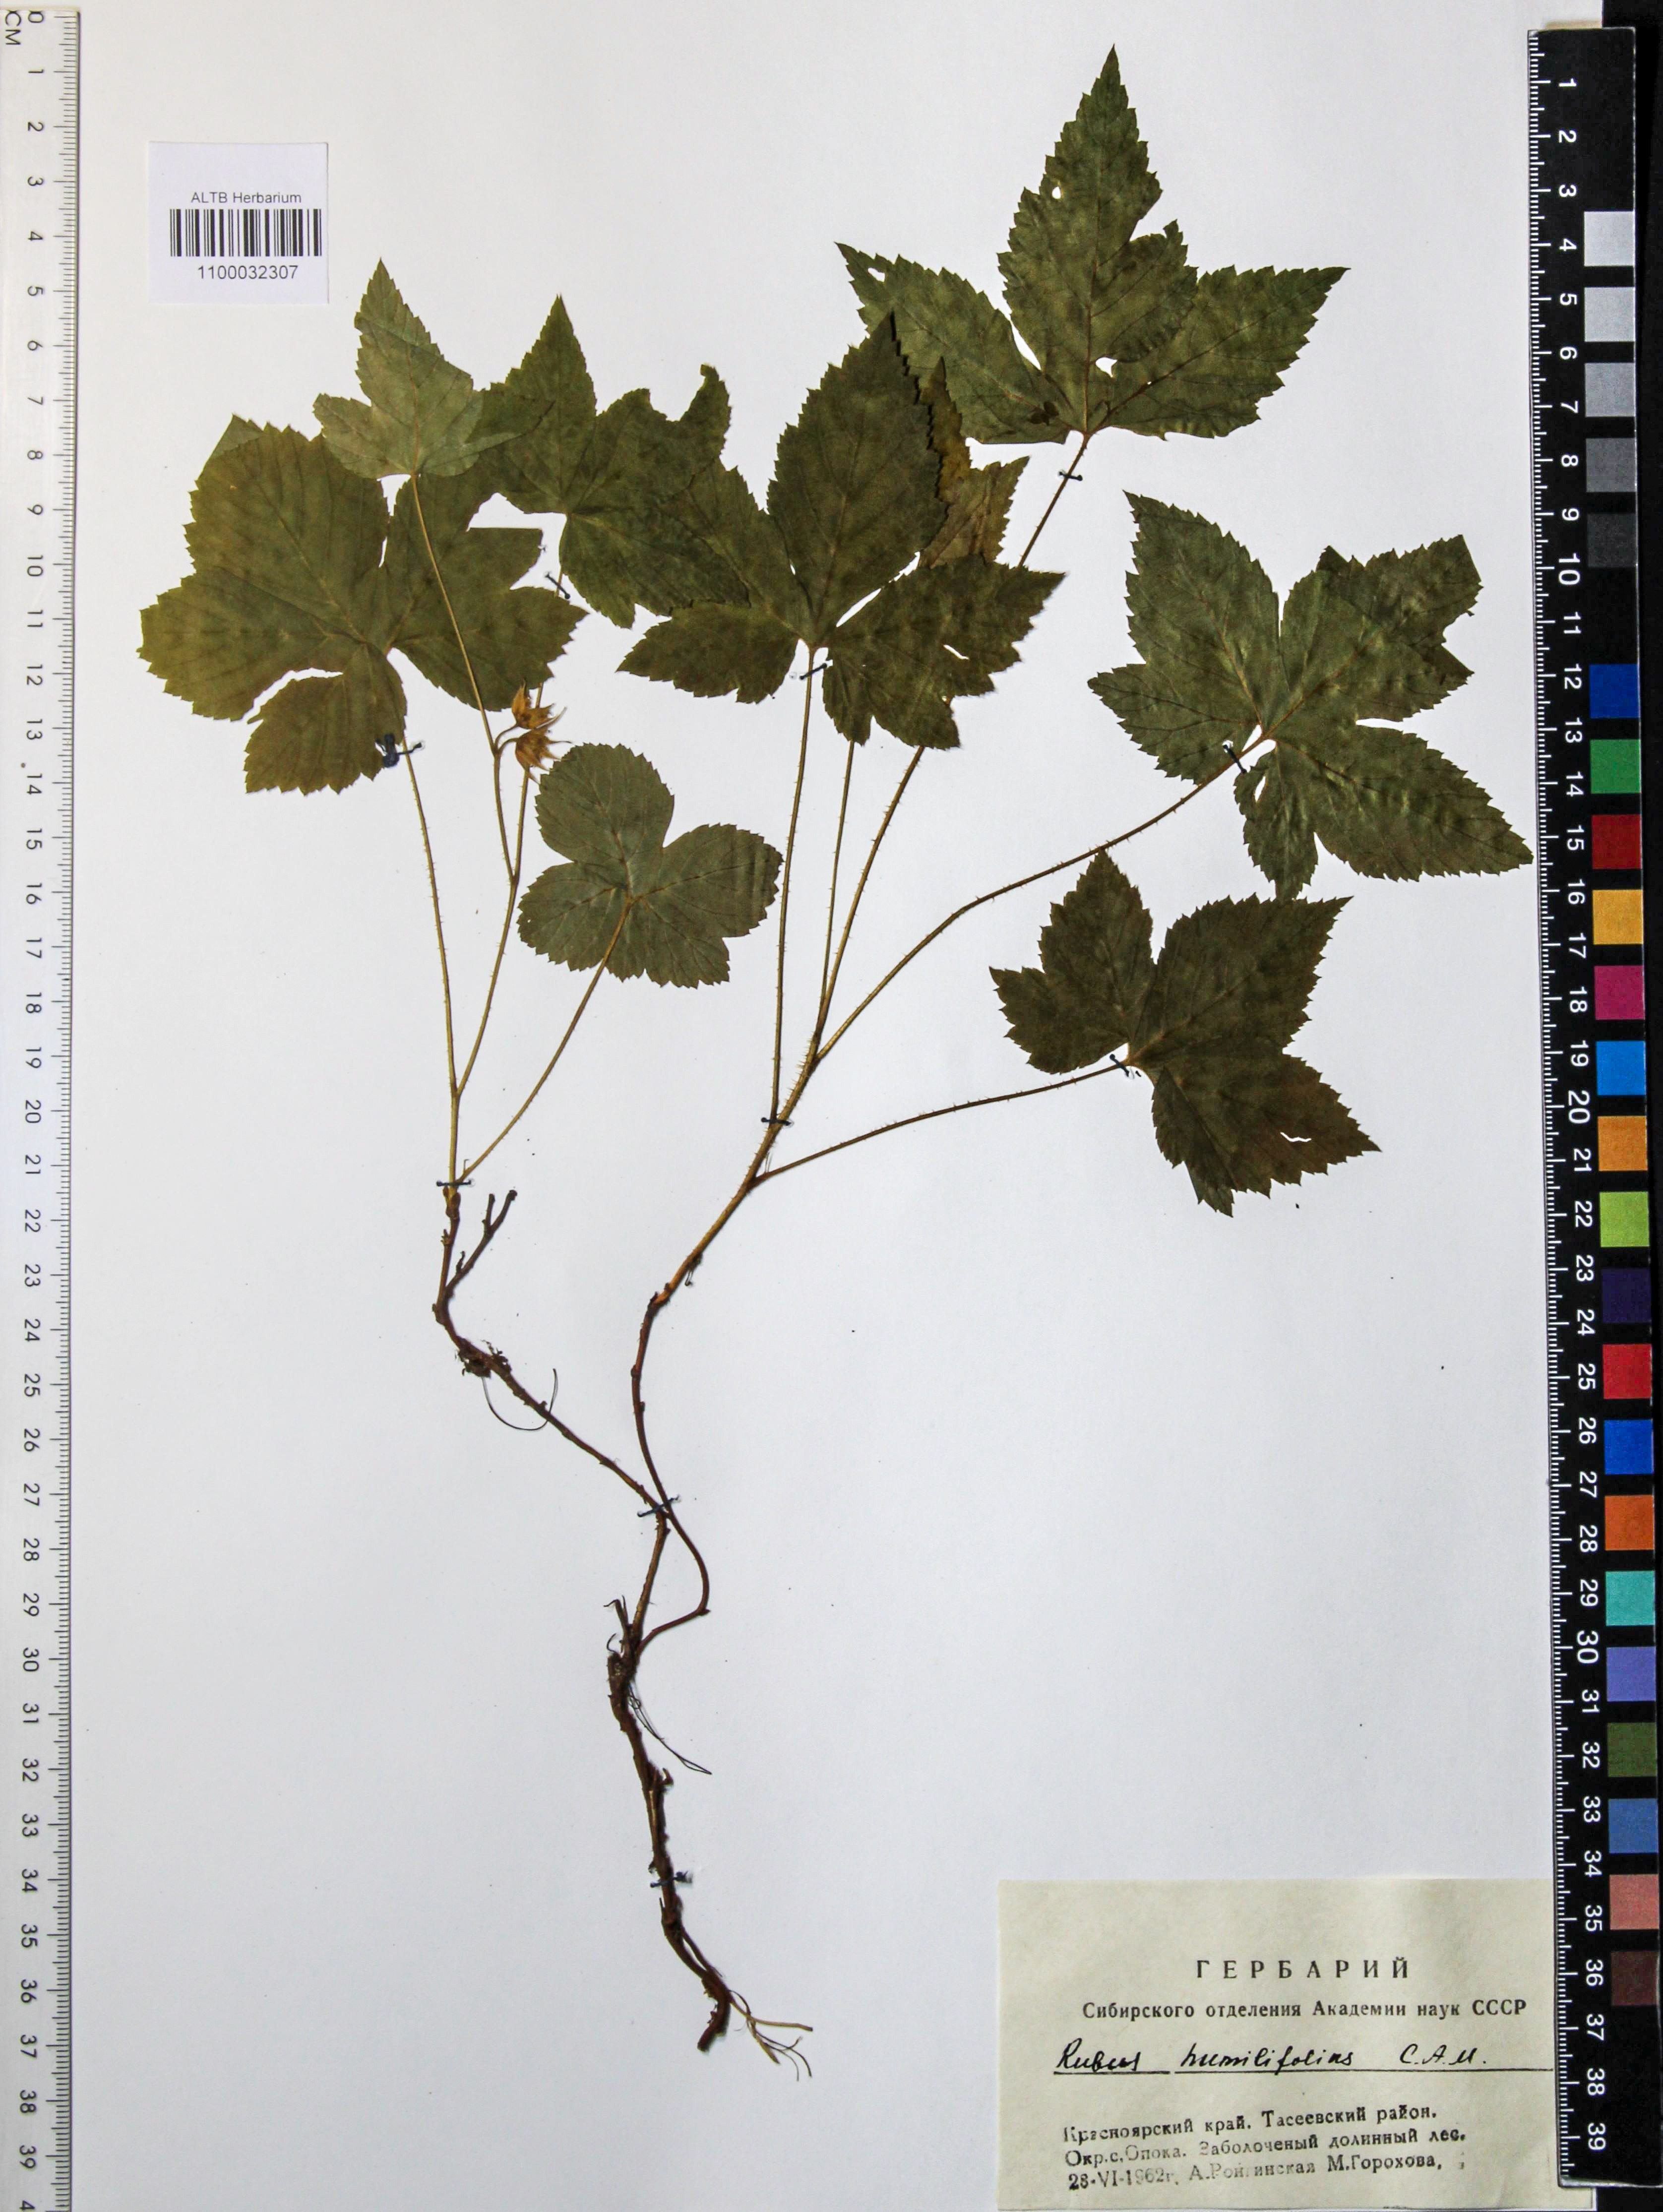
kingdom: Plantae
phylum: Tracheophyta
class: Magnoliopsida
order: Rosales
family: Rosaceae
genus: Rubus
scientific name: Rubus humilifolius
